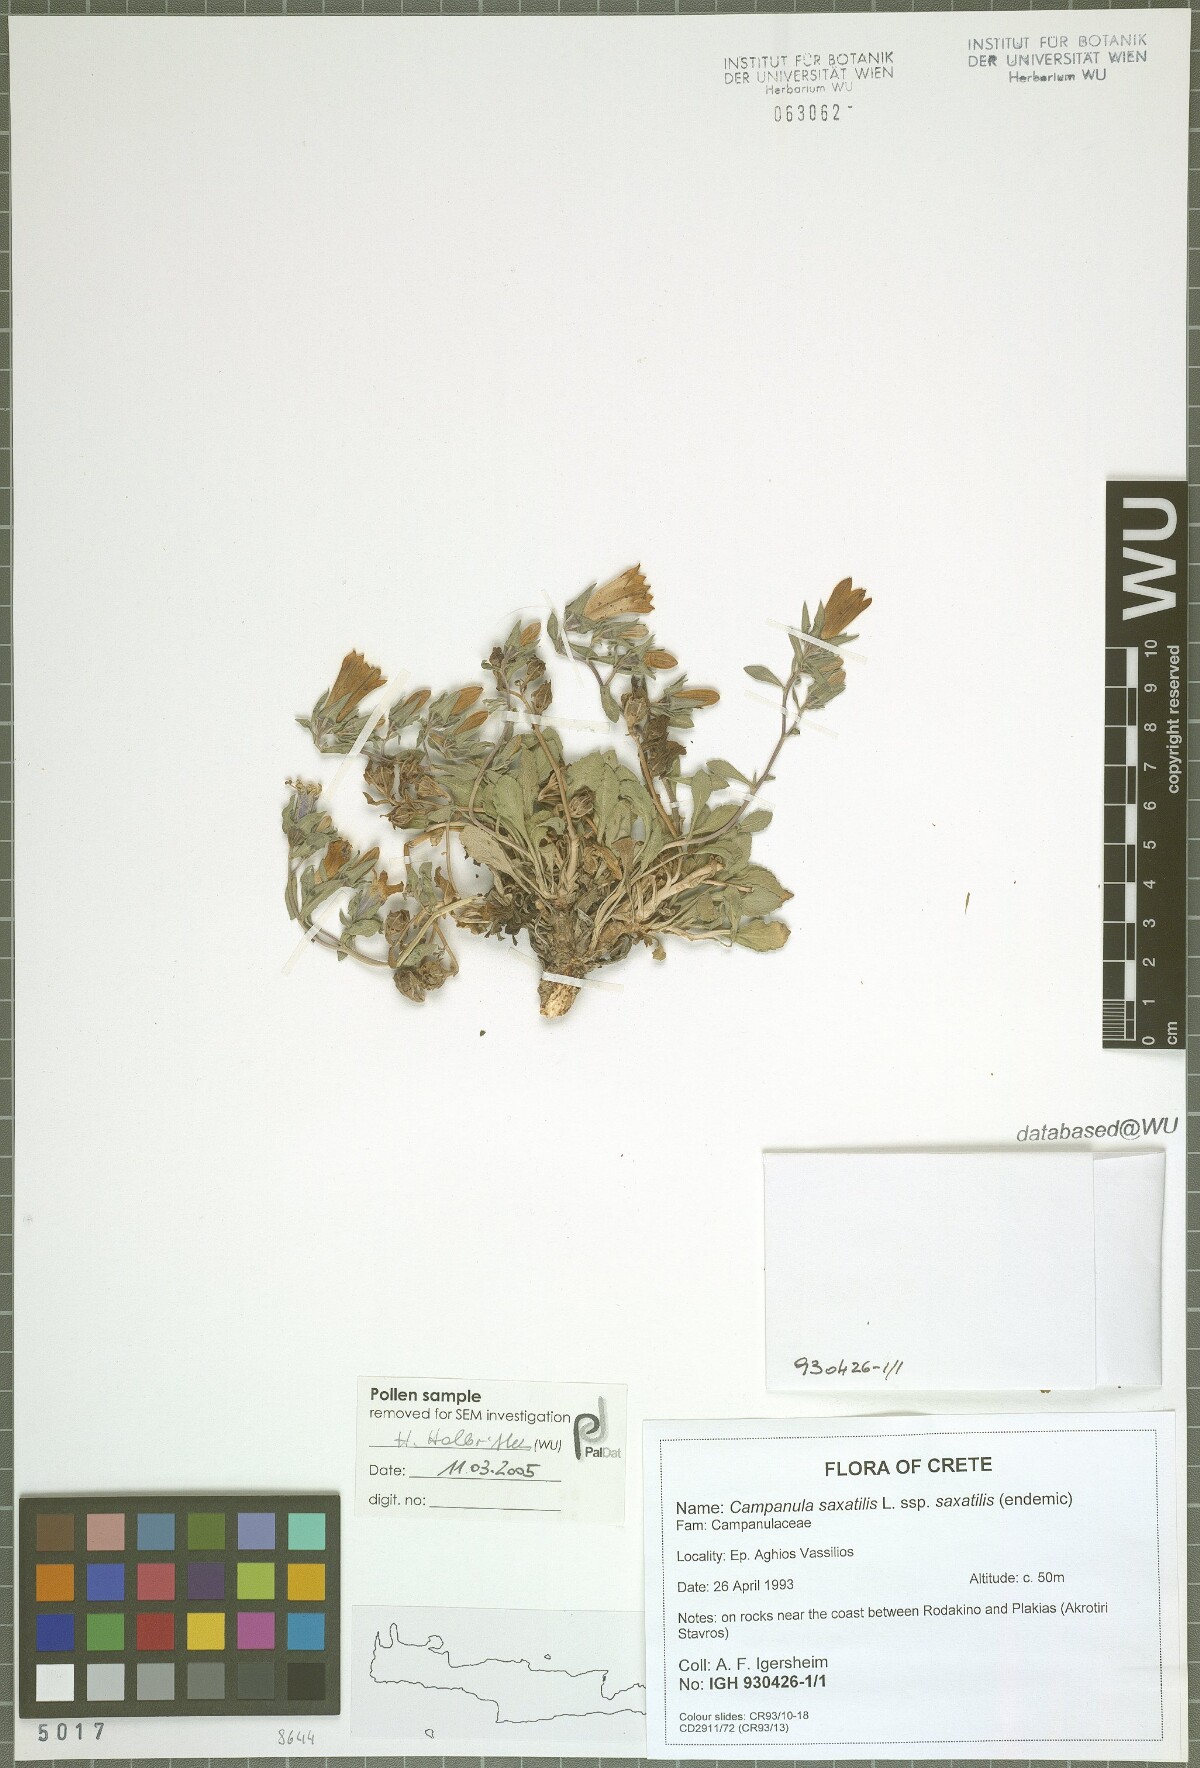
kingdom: Plantae
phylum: Tracheophyta
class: Magnoliopsida
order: Asterales
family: Campanulaceae
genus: Campanula
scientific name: Campanula saxatilis
